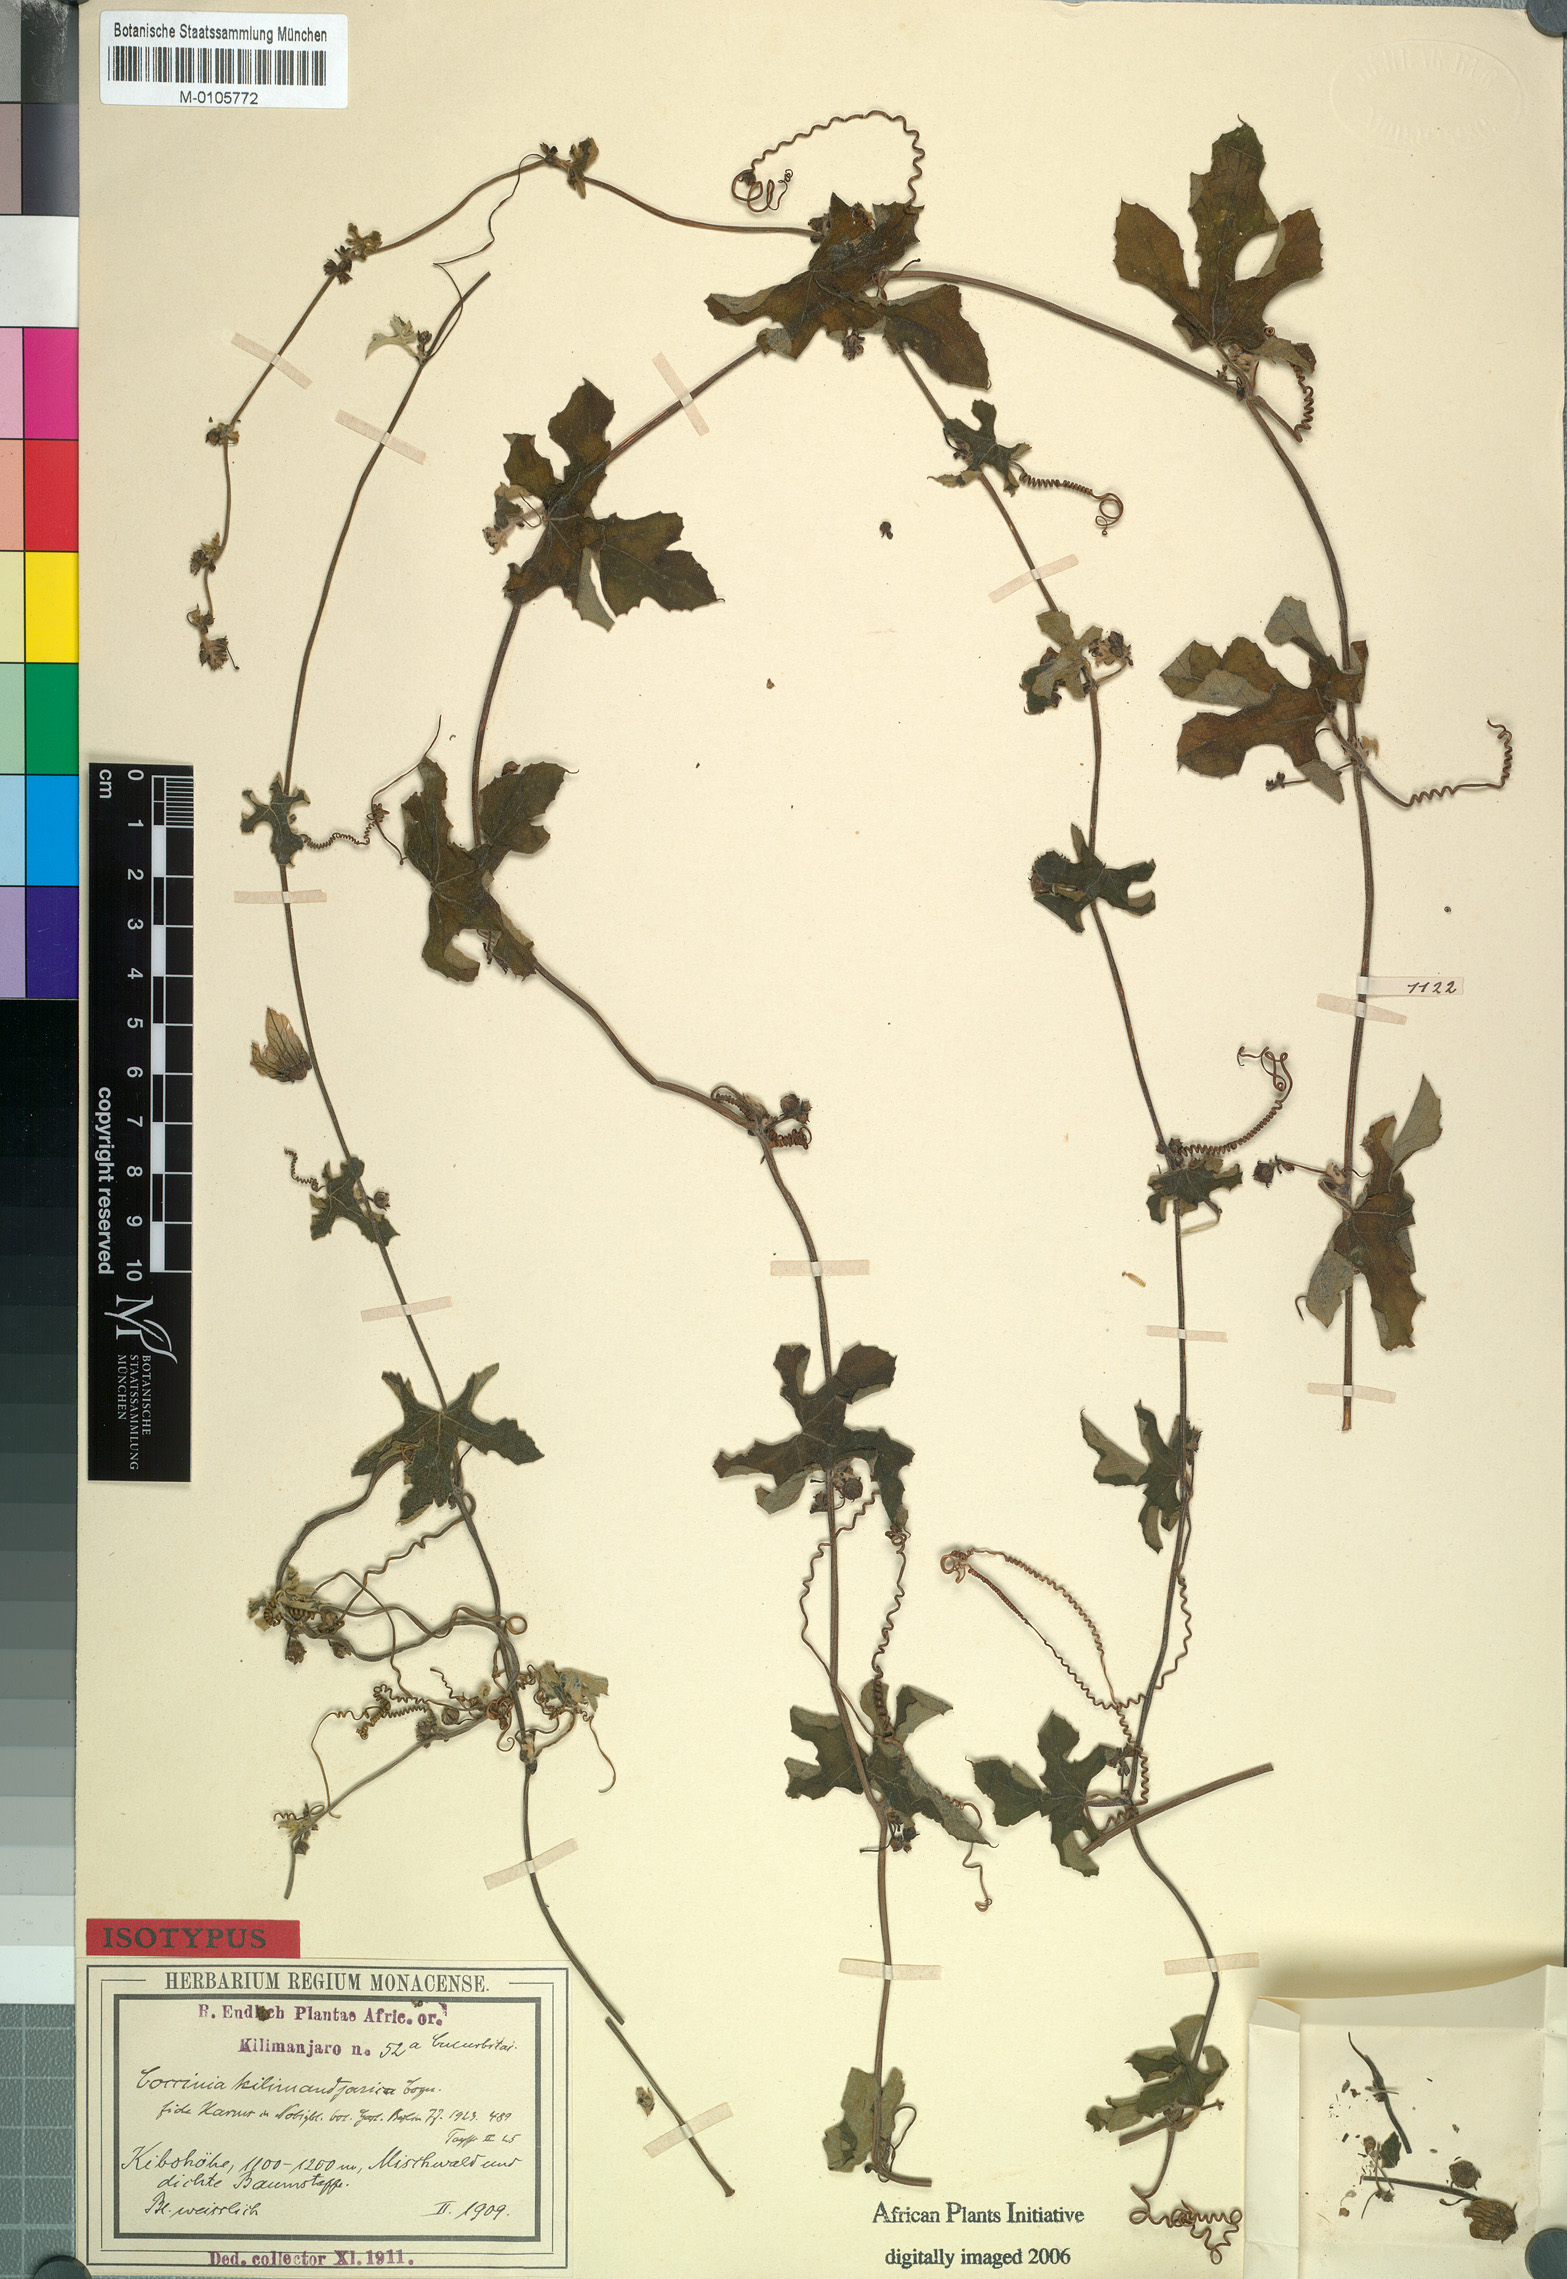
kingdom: Plantae
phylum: Tracheophyta
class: Magnoliopsida
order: Cucurbitales
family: Cucurbitaceae
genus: Coccinia
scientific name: Coccinia trilobata
